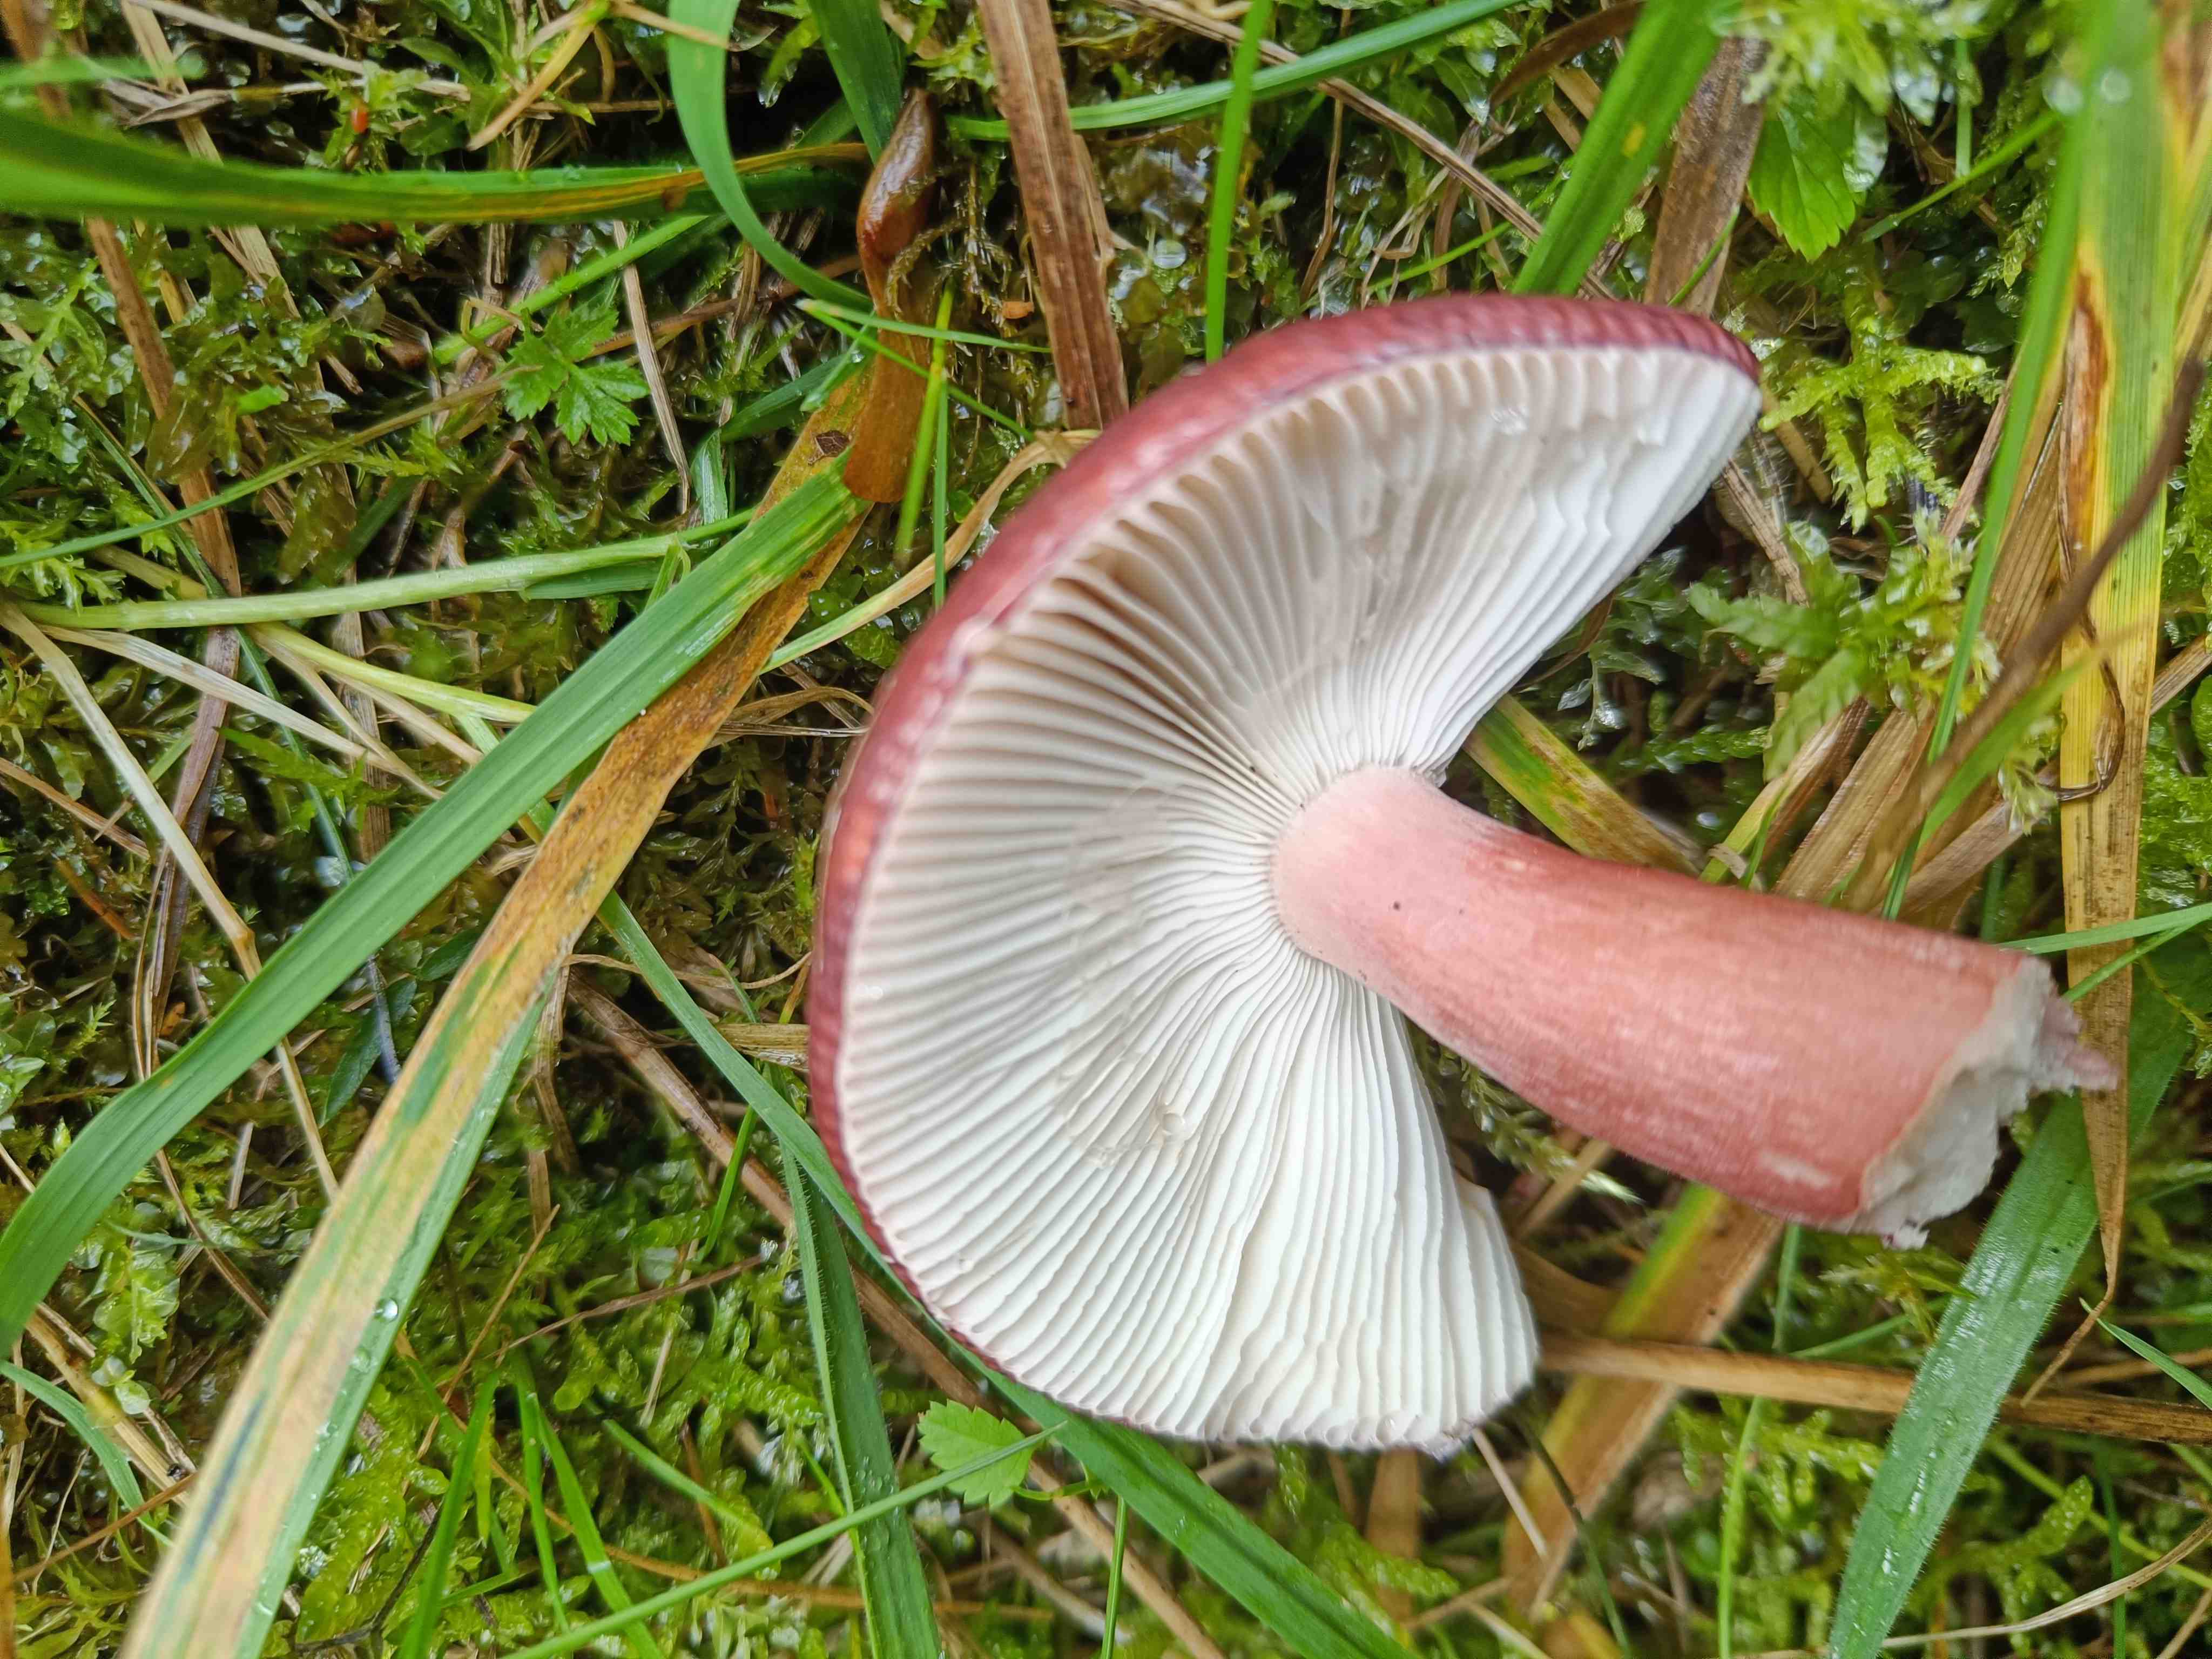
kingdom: Fungi
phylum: Basidiomycota
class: Agaricomycetes
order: Russulales
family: Russulaceae
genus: Russula
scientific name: Russula queletii
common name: Quélets skørhat
